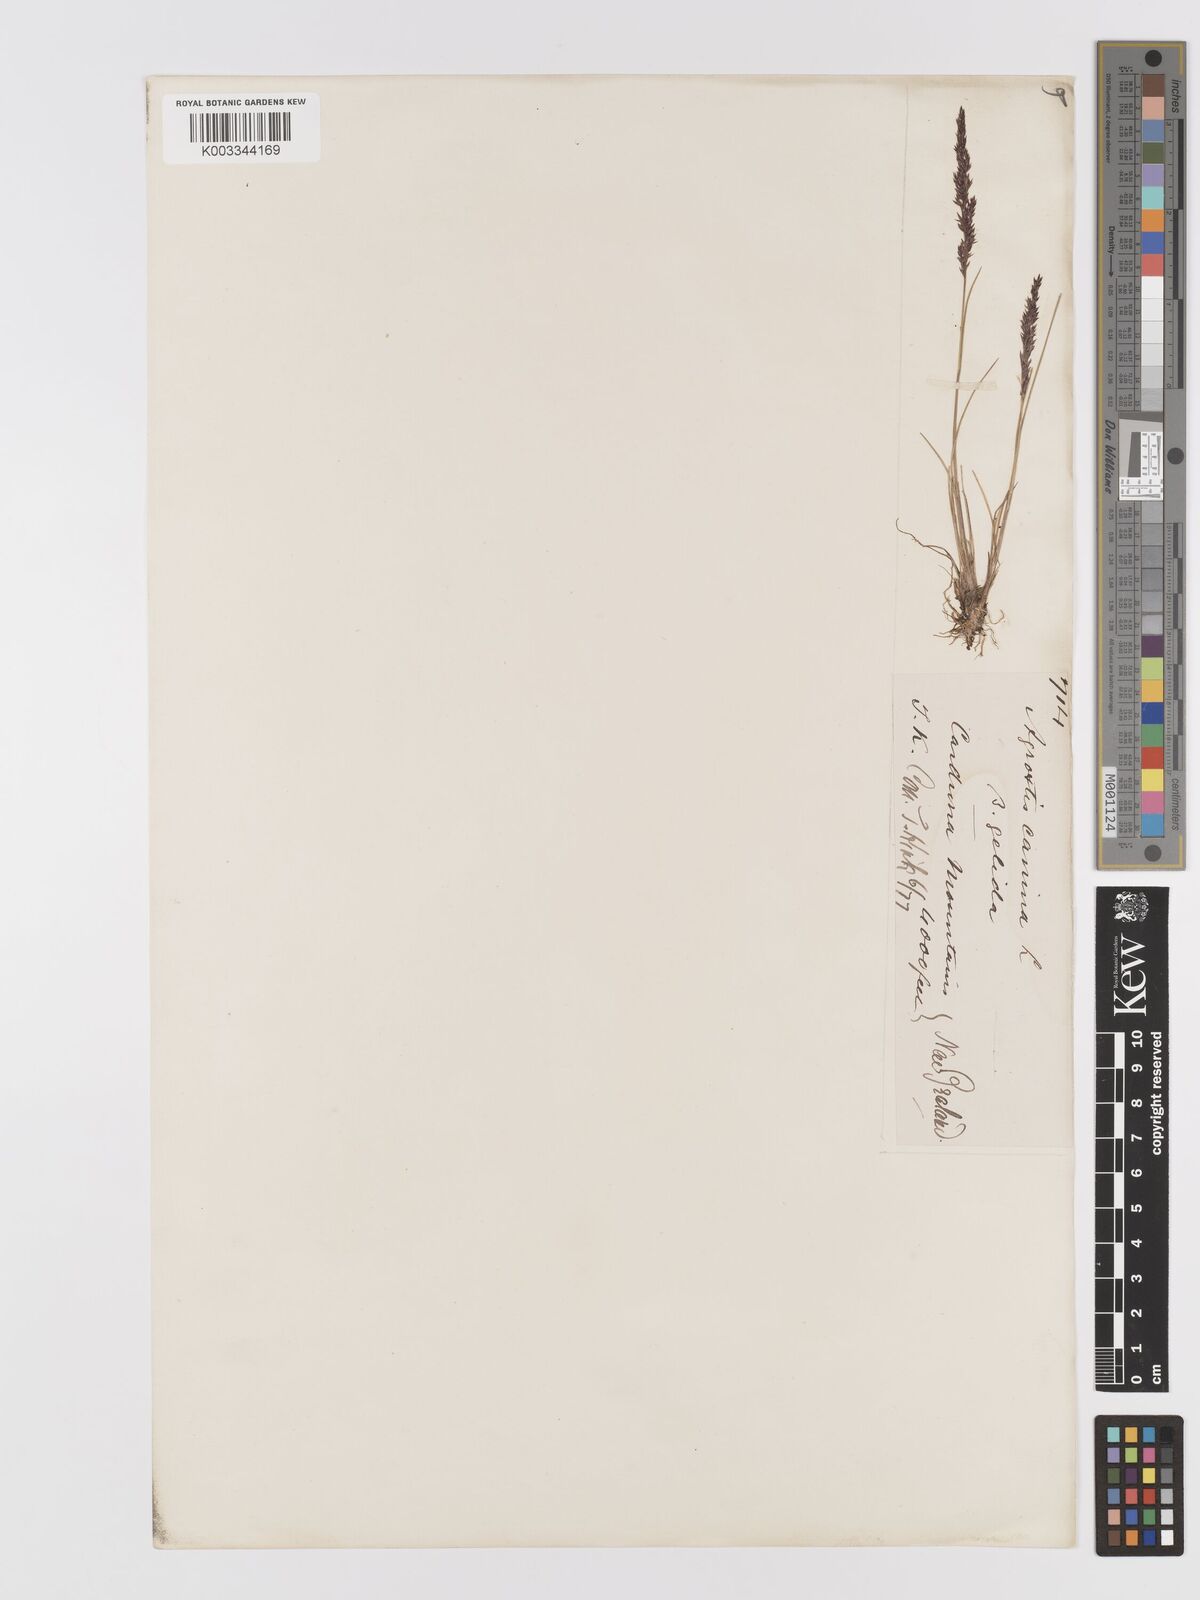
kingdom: Plantae
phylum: Tracheophyta
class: Liliopsida
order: Poales
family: Poaceae
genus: Agrostis
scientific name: Agrostis personata
